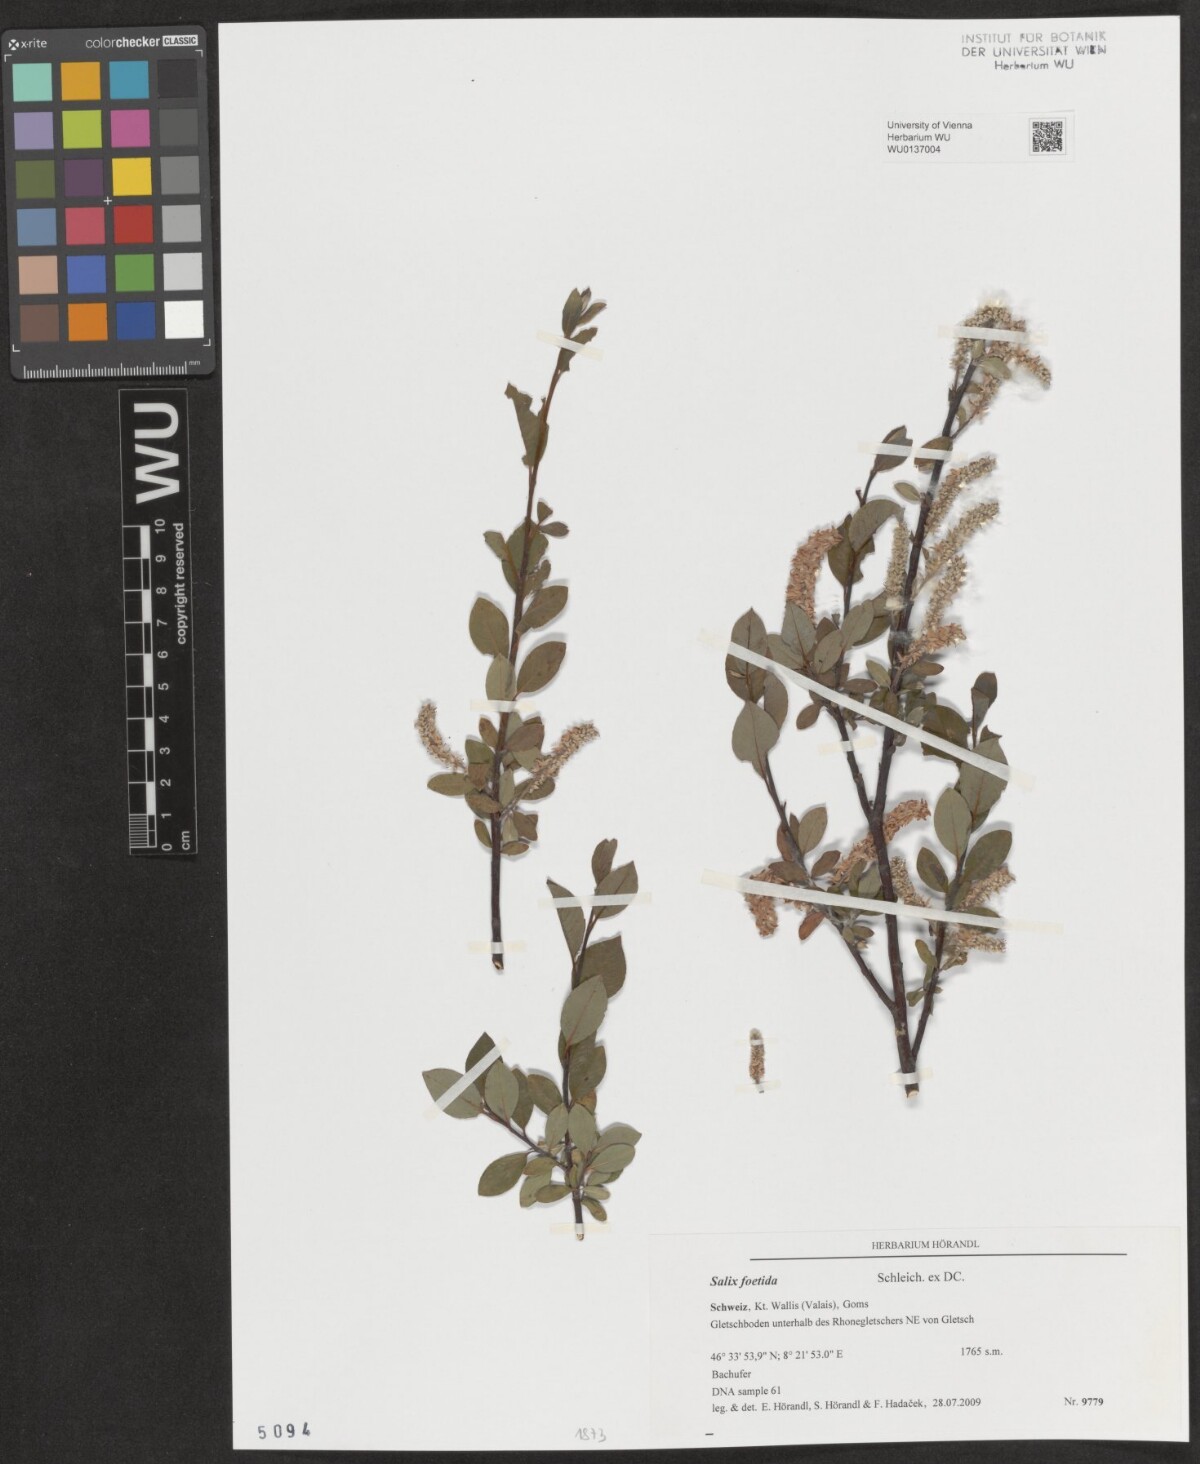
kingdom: Plantae
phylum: Tracheophyta
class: Magnoliopsida
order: Malpighiales
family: Salicaceae
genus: Salix
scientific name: Salix foetida
